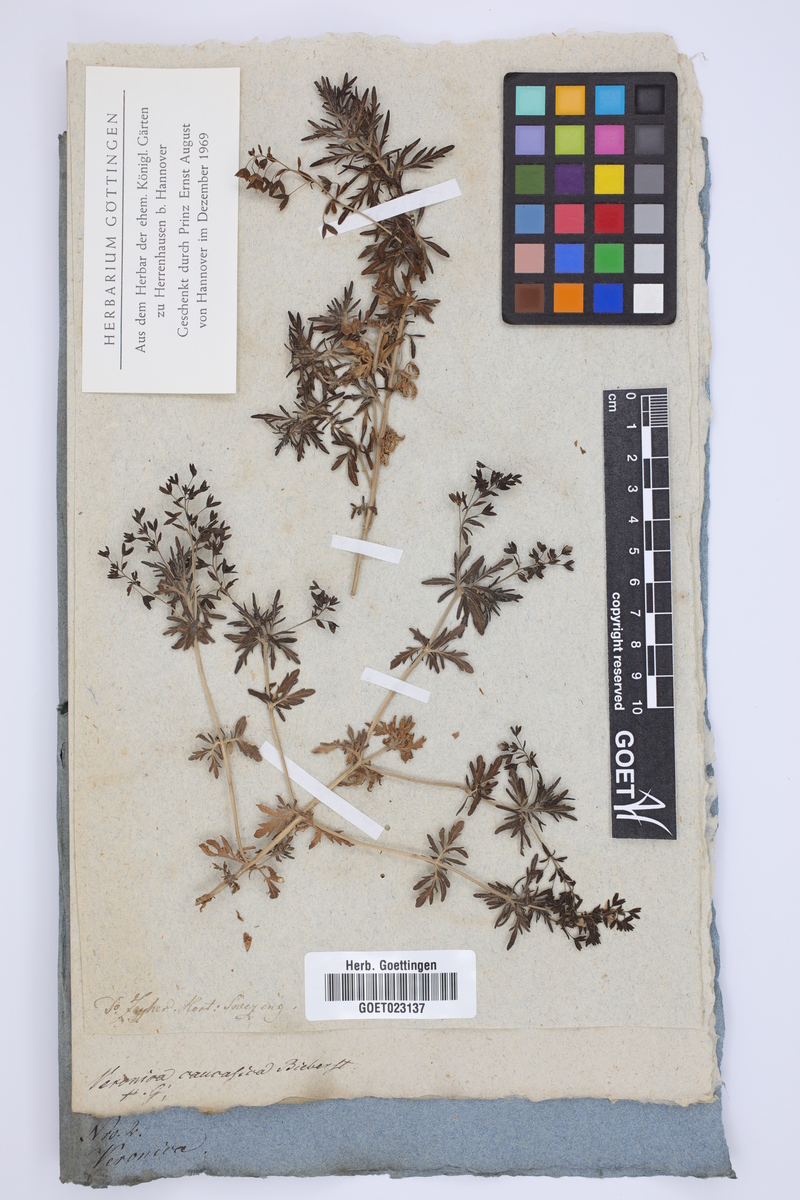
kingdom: Plantae
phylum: Tracheophyta
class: Magnoliopsida
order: Lamiales
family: Plantaginaceae
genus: Veronica
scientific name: Veronica caucasica
